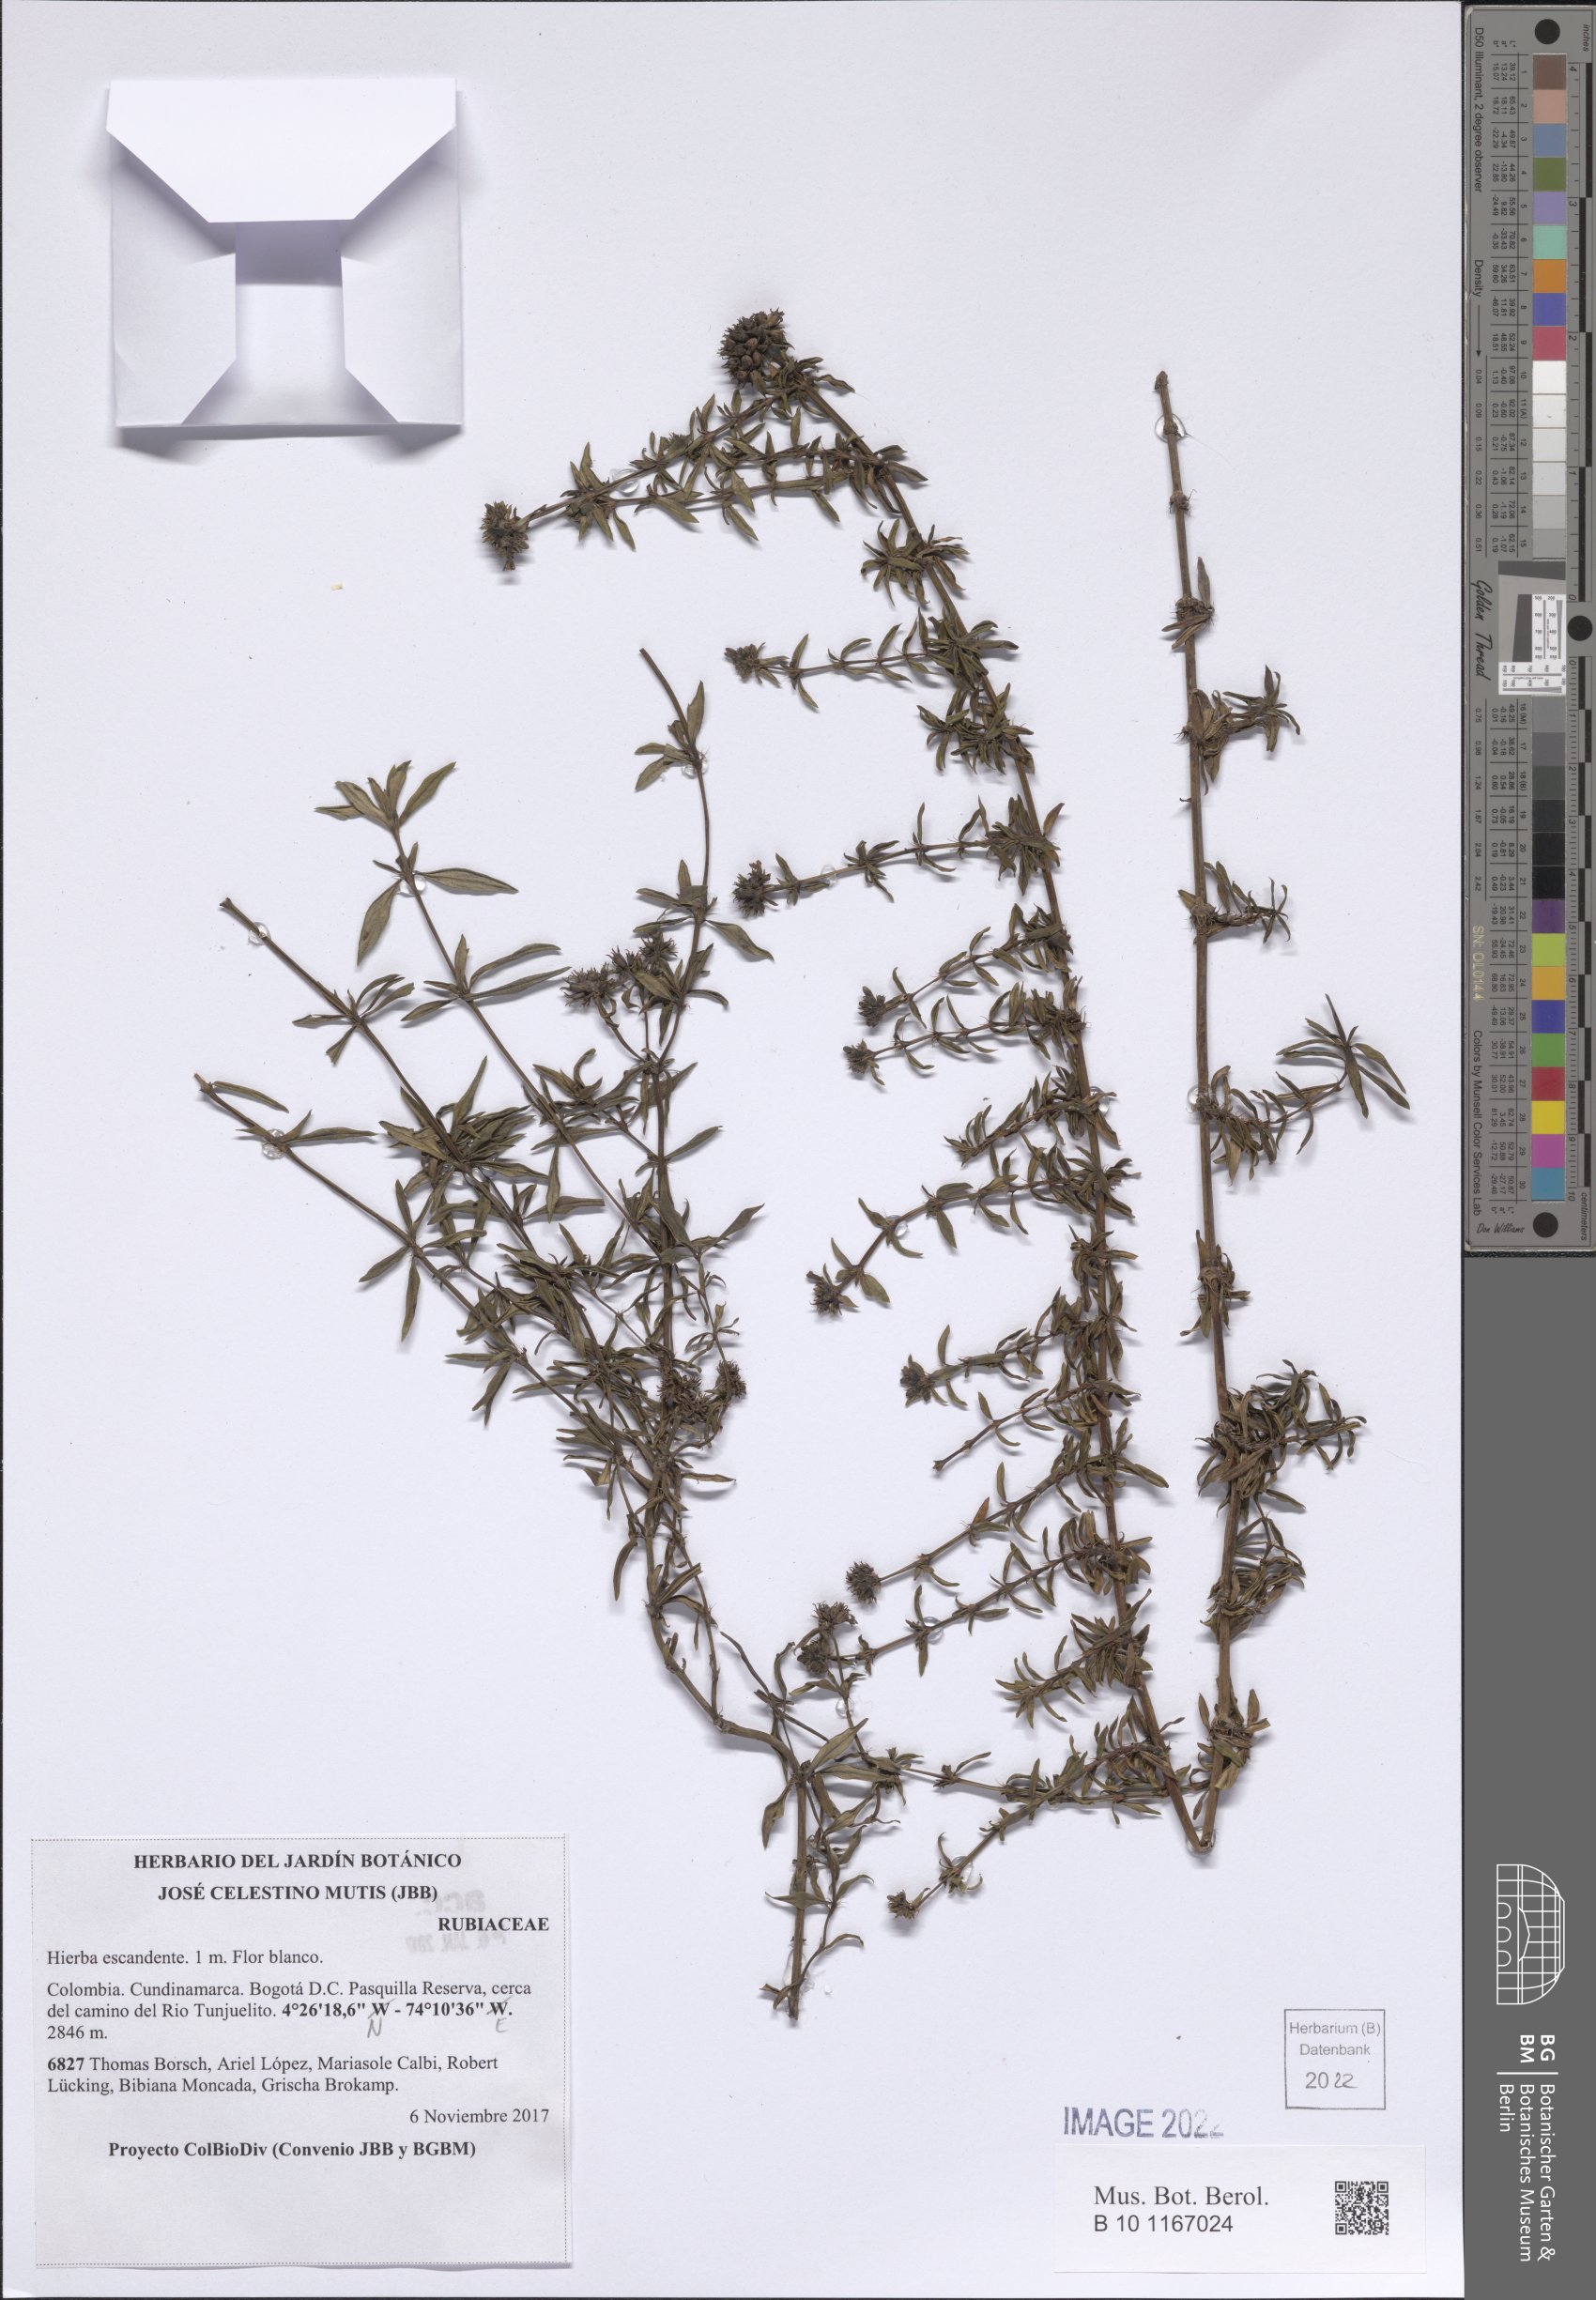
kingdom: Plantae
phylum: Tracheophyta
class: Magnoliopsida
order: Gentianales
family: Rubiaceae
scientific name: Rubiaceae
